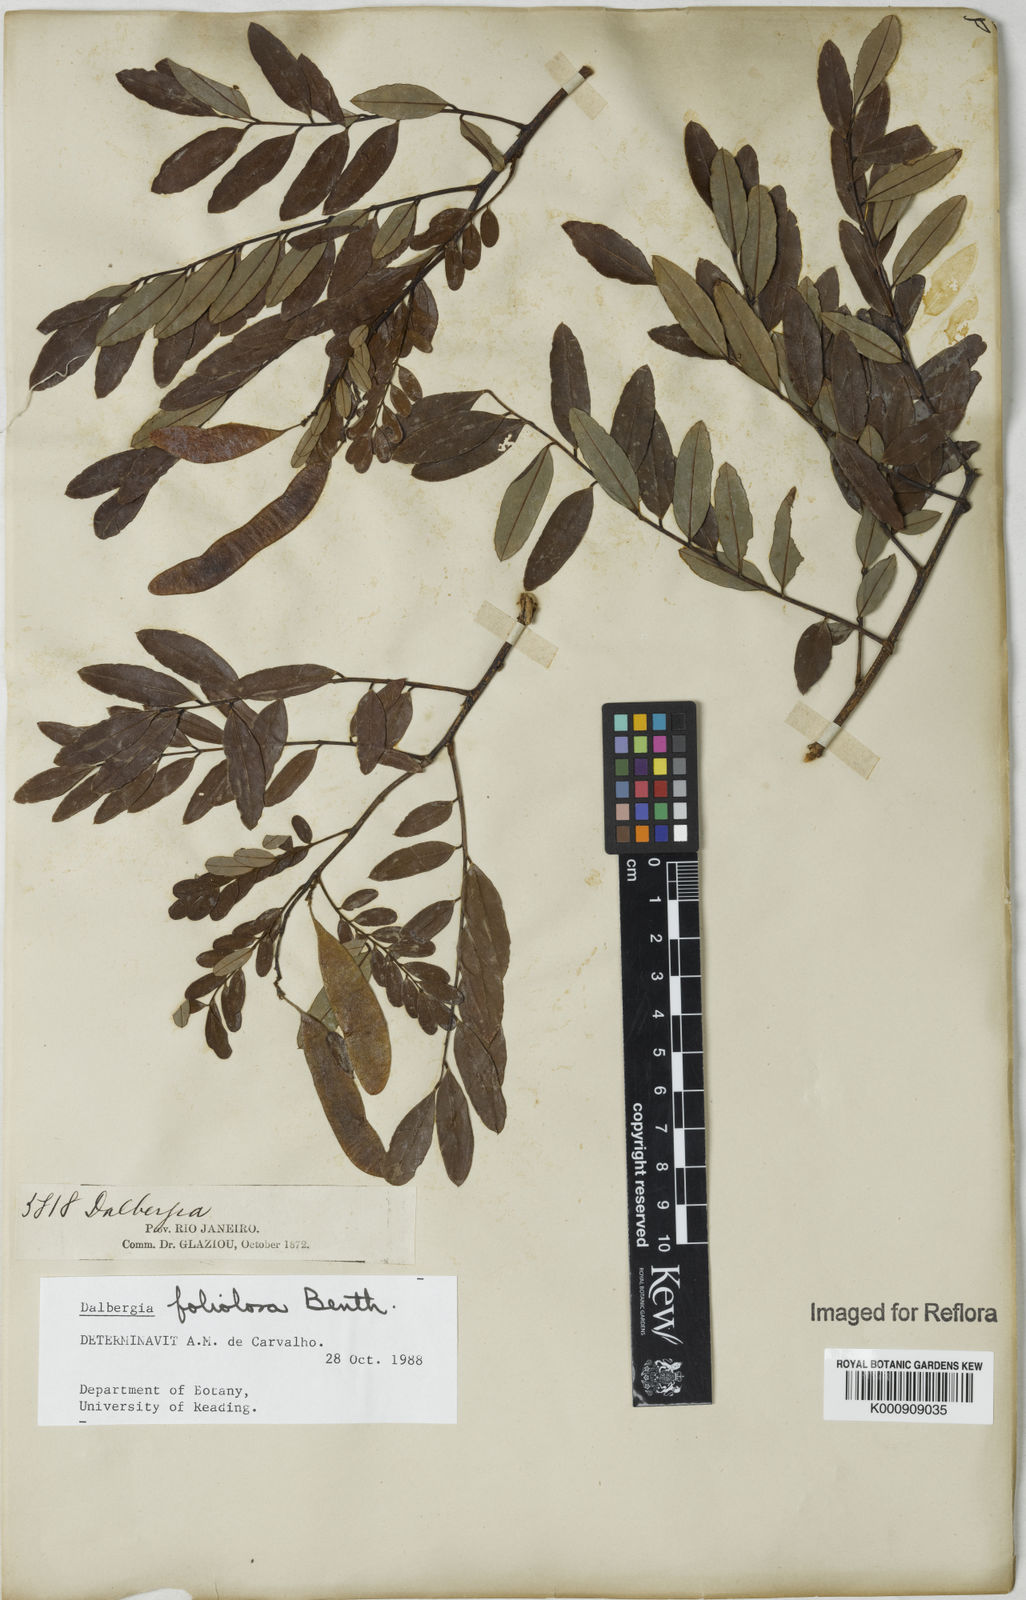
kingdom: Plantae
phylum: Tracheophyta
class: Magnoliopsida
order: Fabales
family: Fabaceae
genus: Dalbergia
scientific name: Dalbergia foliolosa
